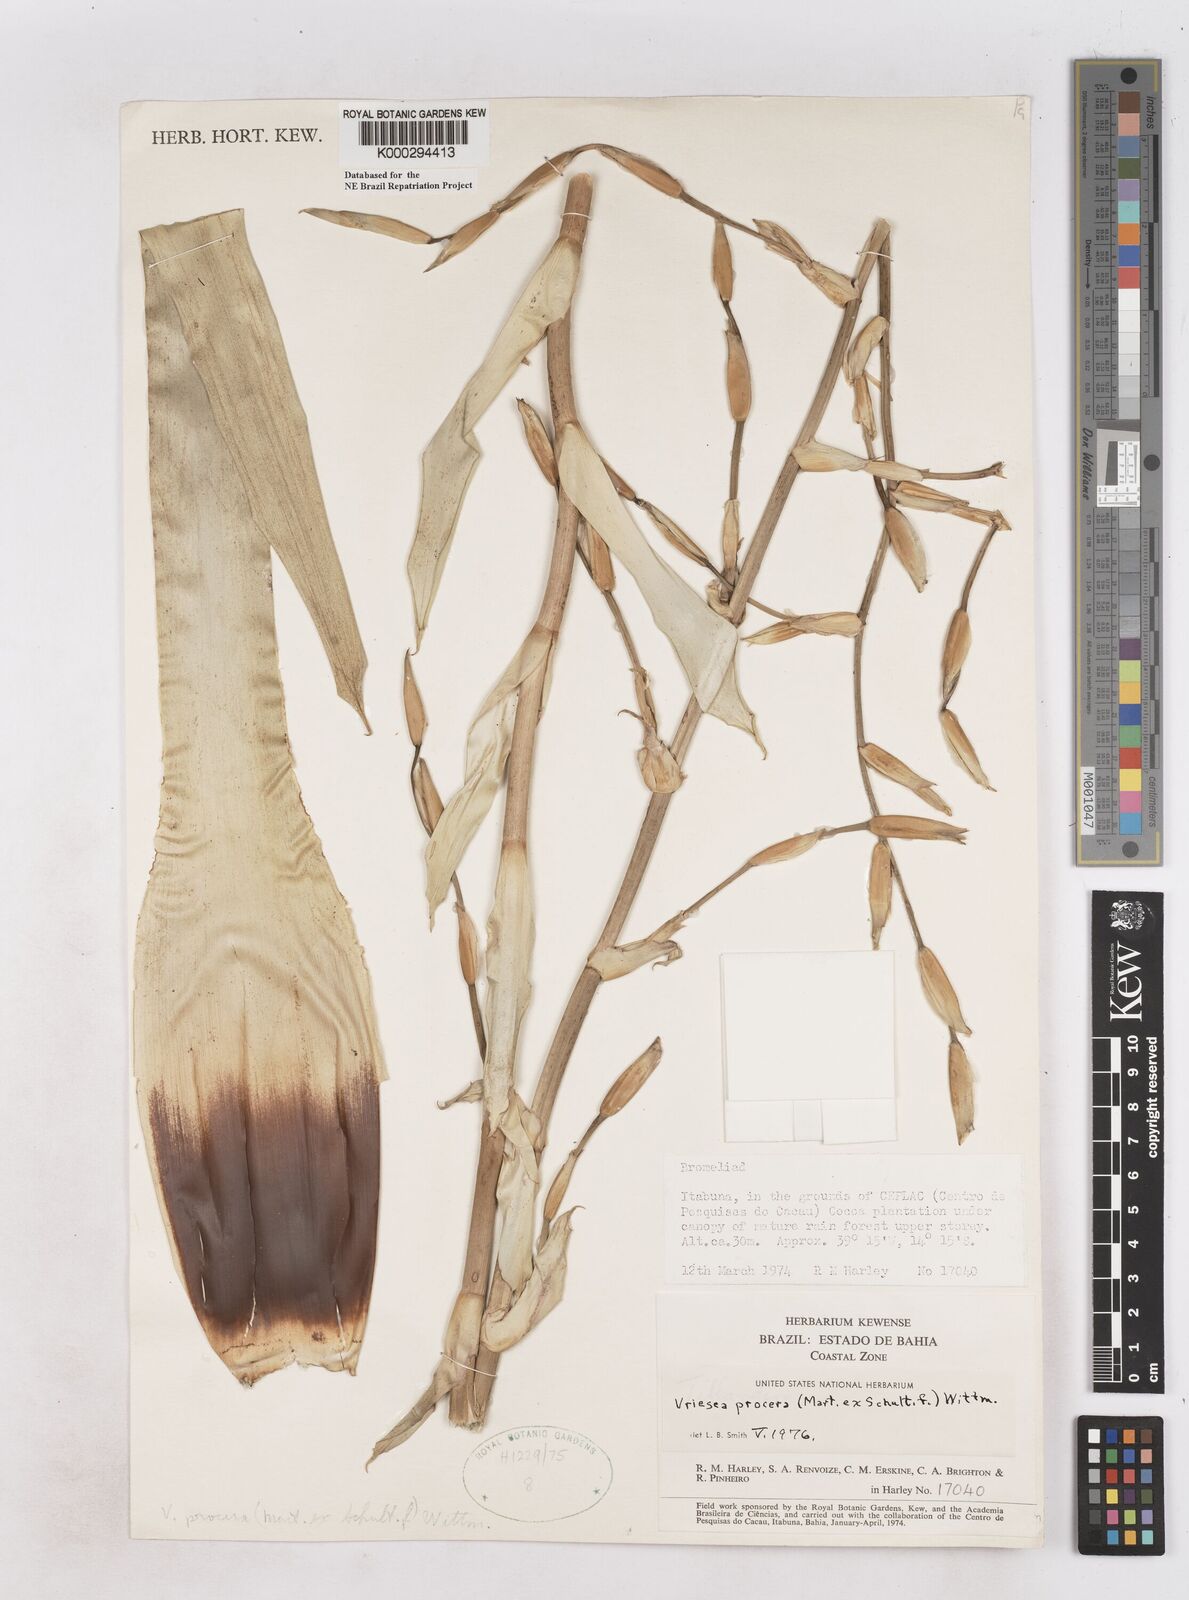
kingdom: Plantae
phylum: Tracheophyta
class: Liliopsida
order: Poales
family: Bromeliaceae
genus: Vriesea
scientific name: Vriesea procera
